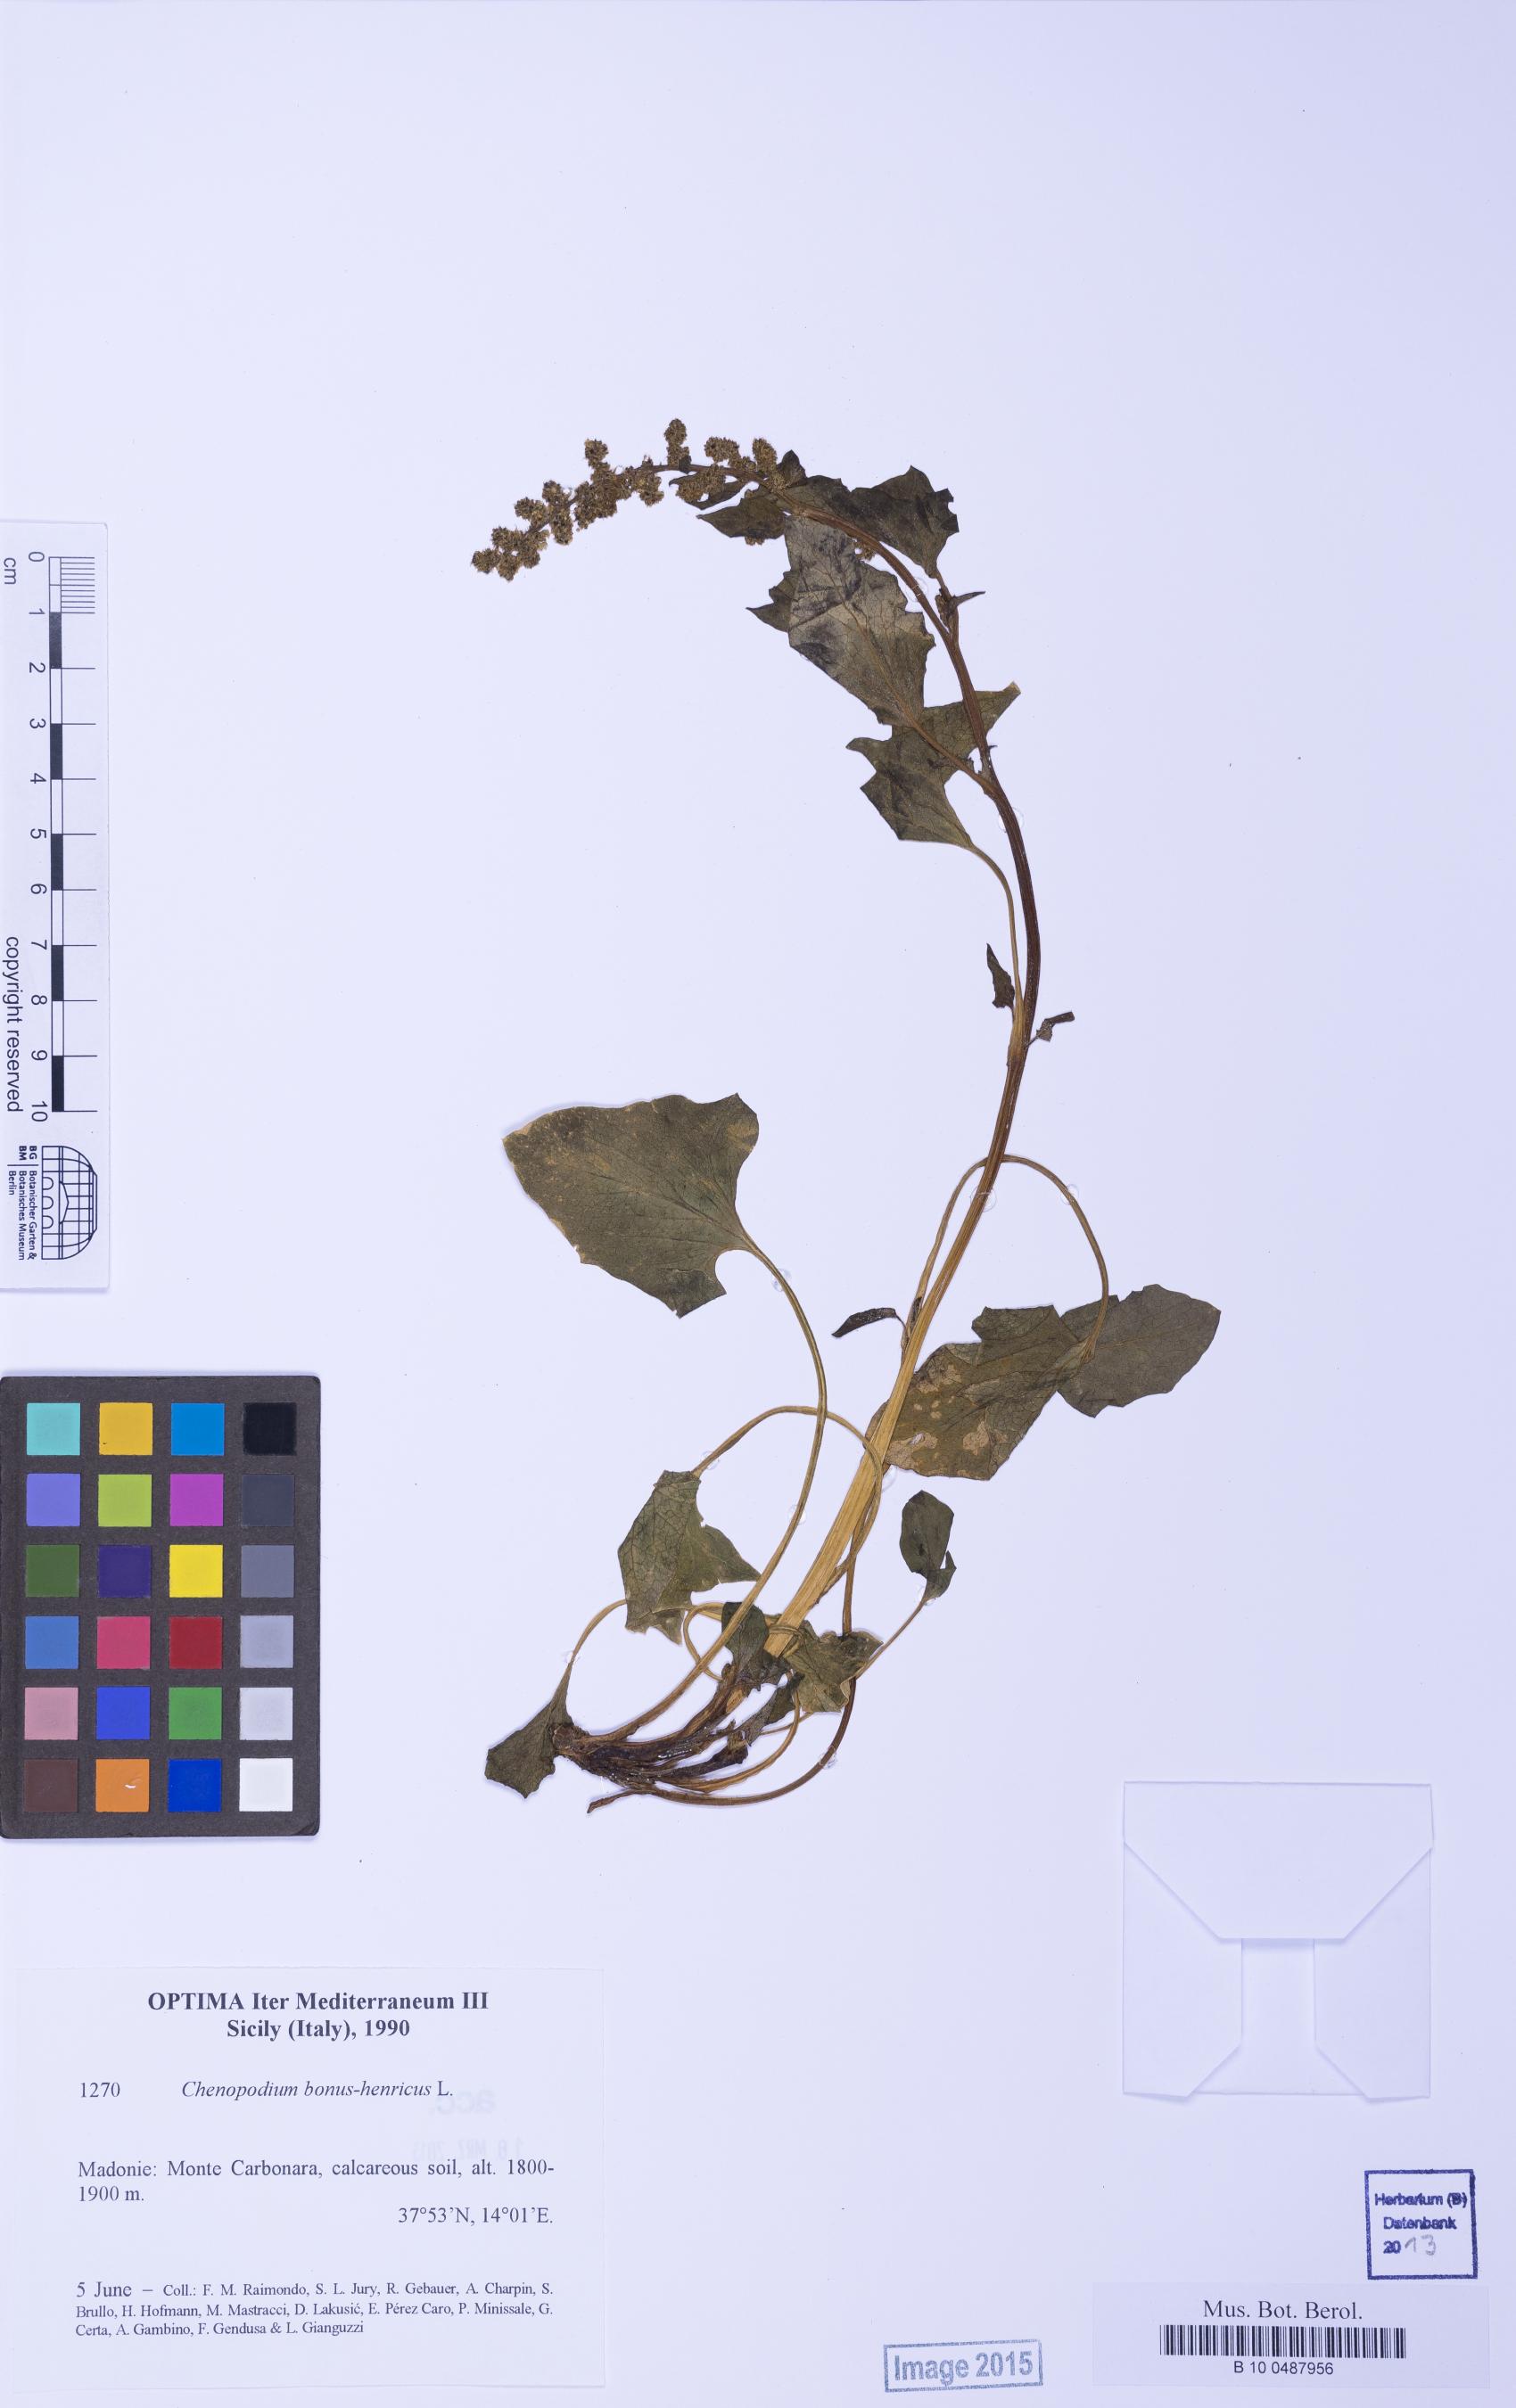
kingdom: Plantae
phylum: Tracheophyta
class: Magnoliopsida
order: Caryophyllales
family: Amaranthaceae
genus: Blitum
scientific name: Blitum bonus-henricus
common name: Good king henry
